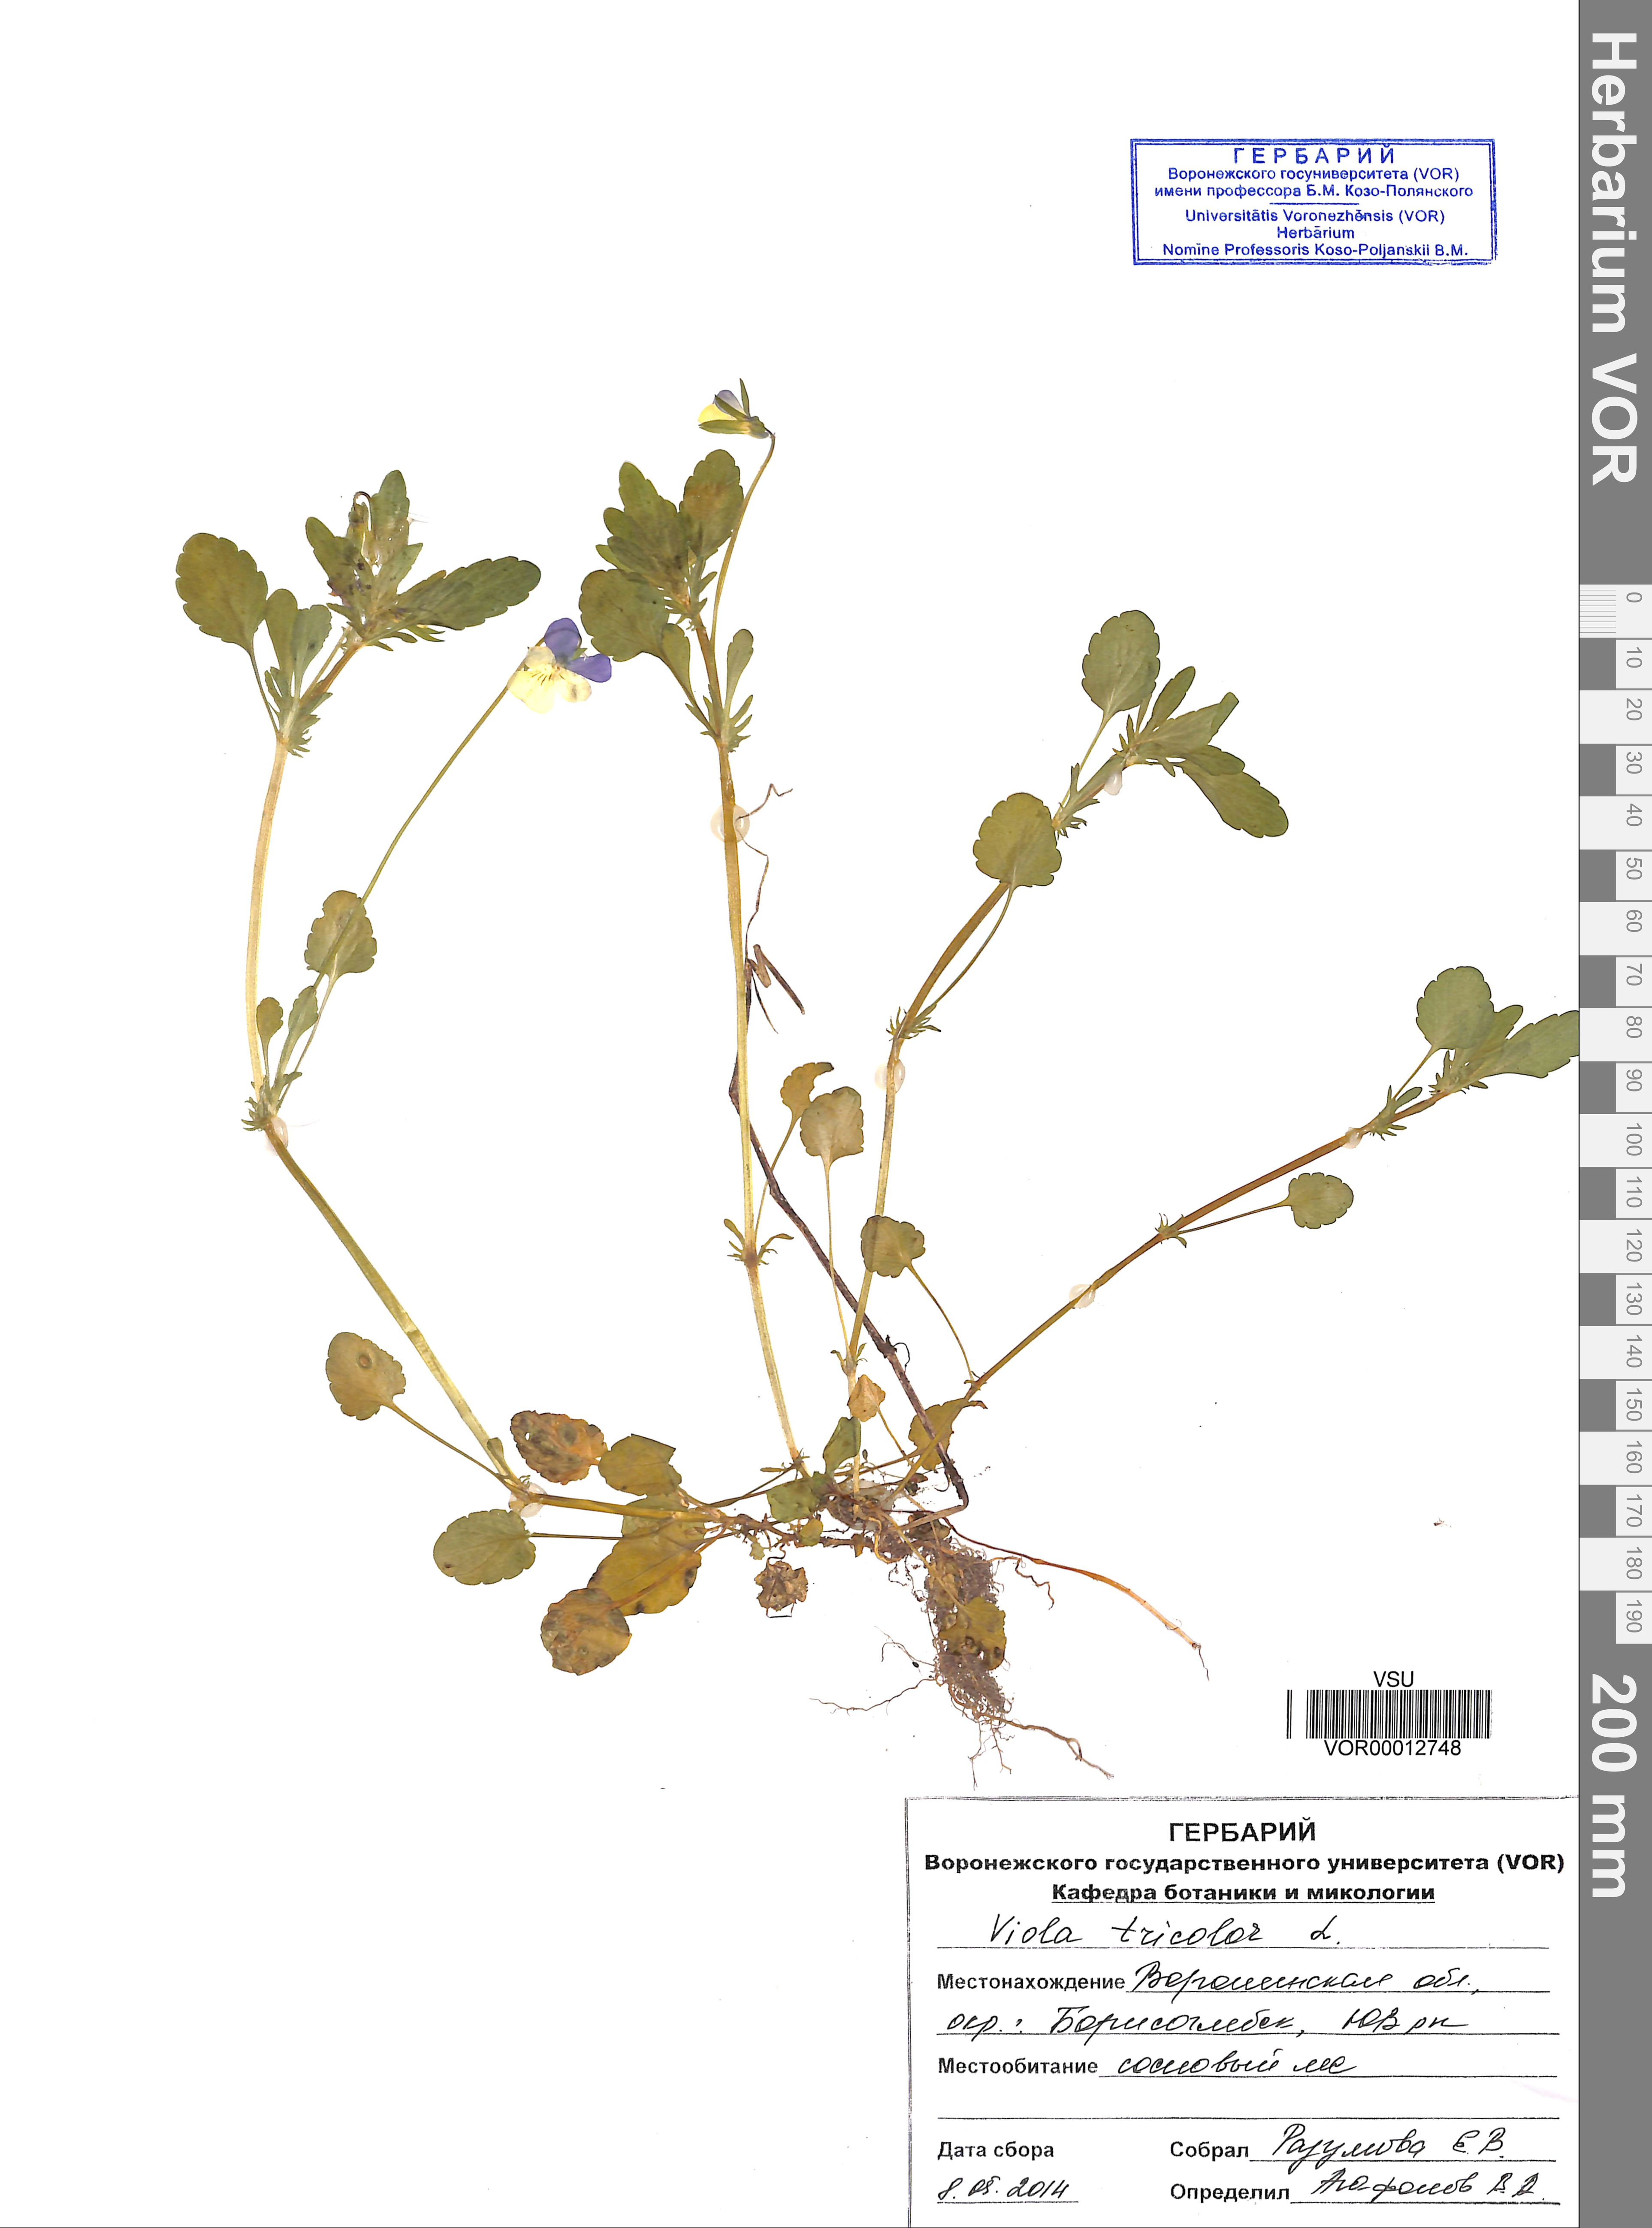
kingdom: Plantae
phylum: Tracheophyta
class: Magnoliopsida
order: Malpighiales
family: Violaceae
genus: Viola
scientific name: Viola tricolor
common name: Pansy
